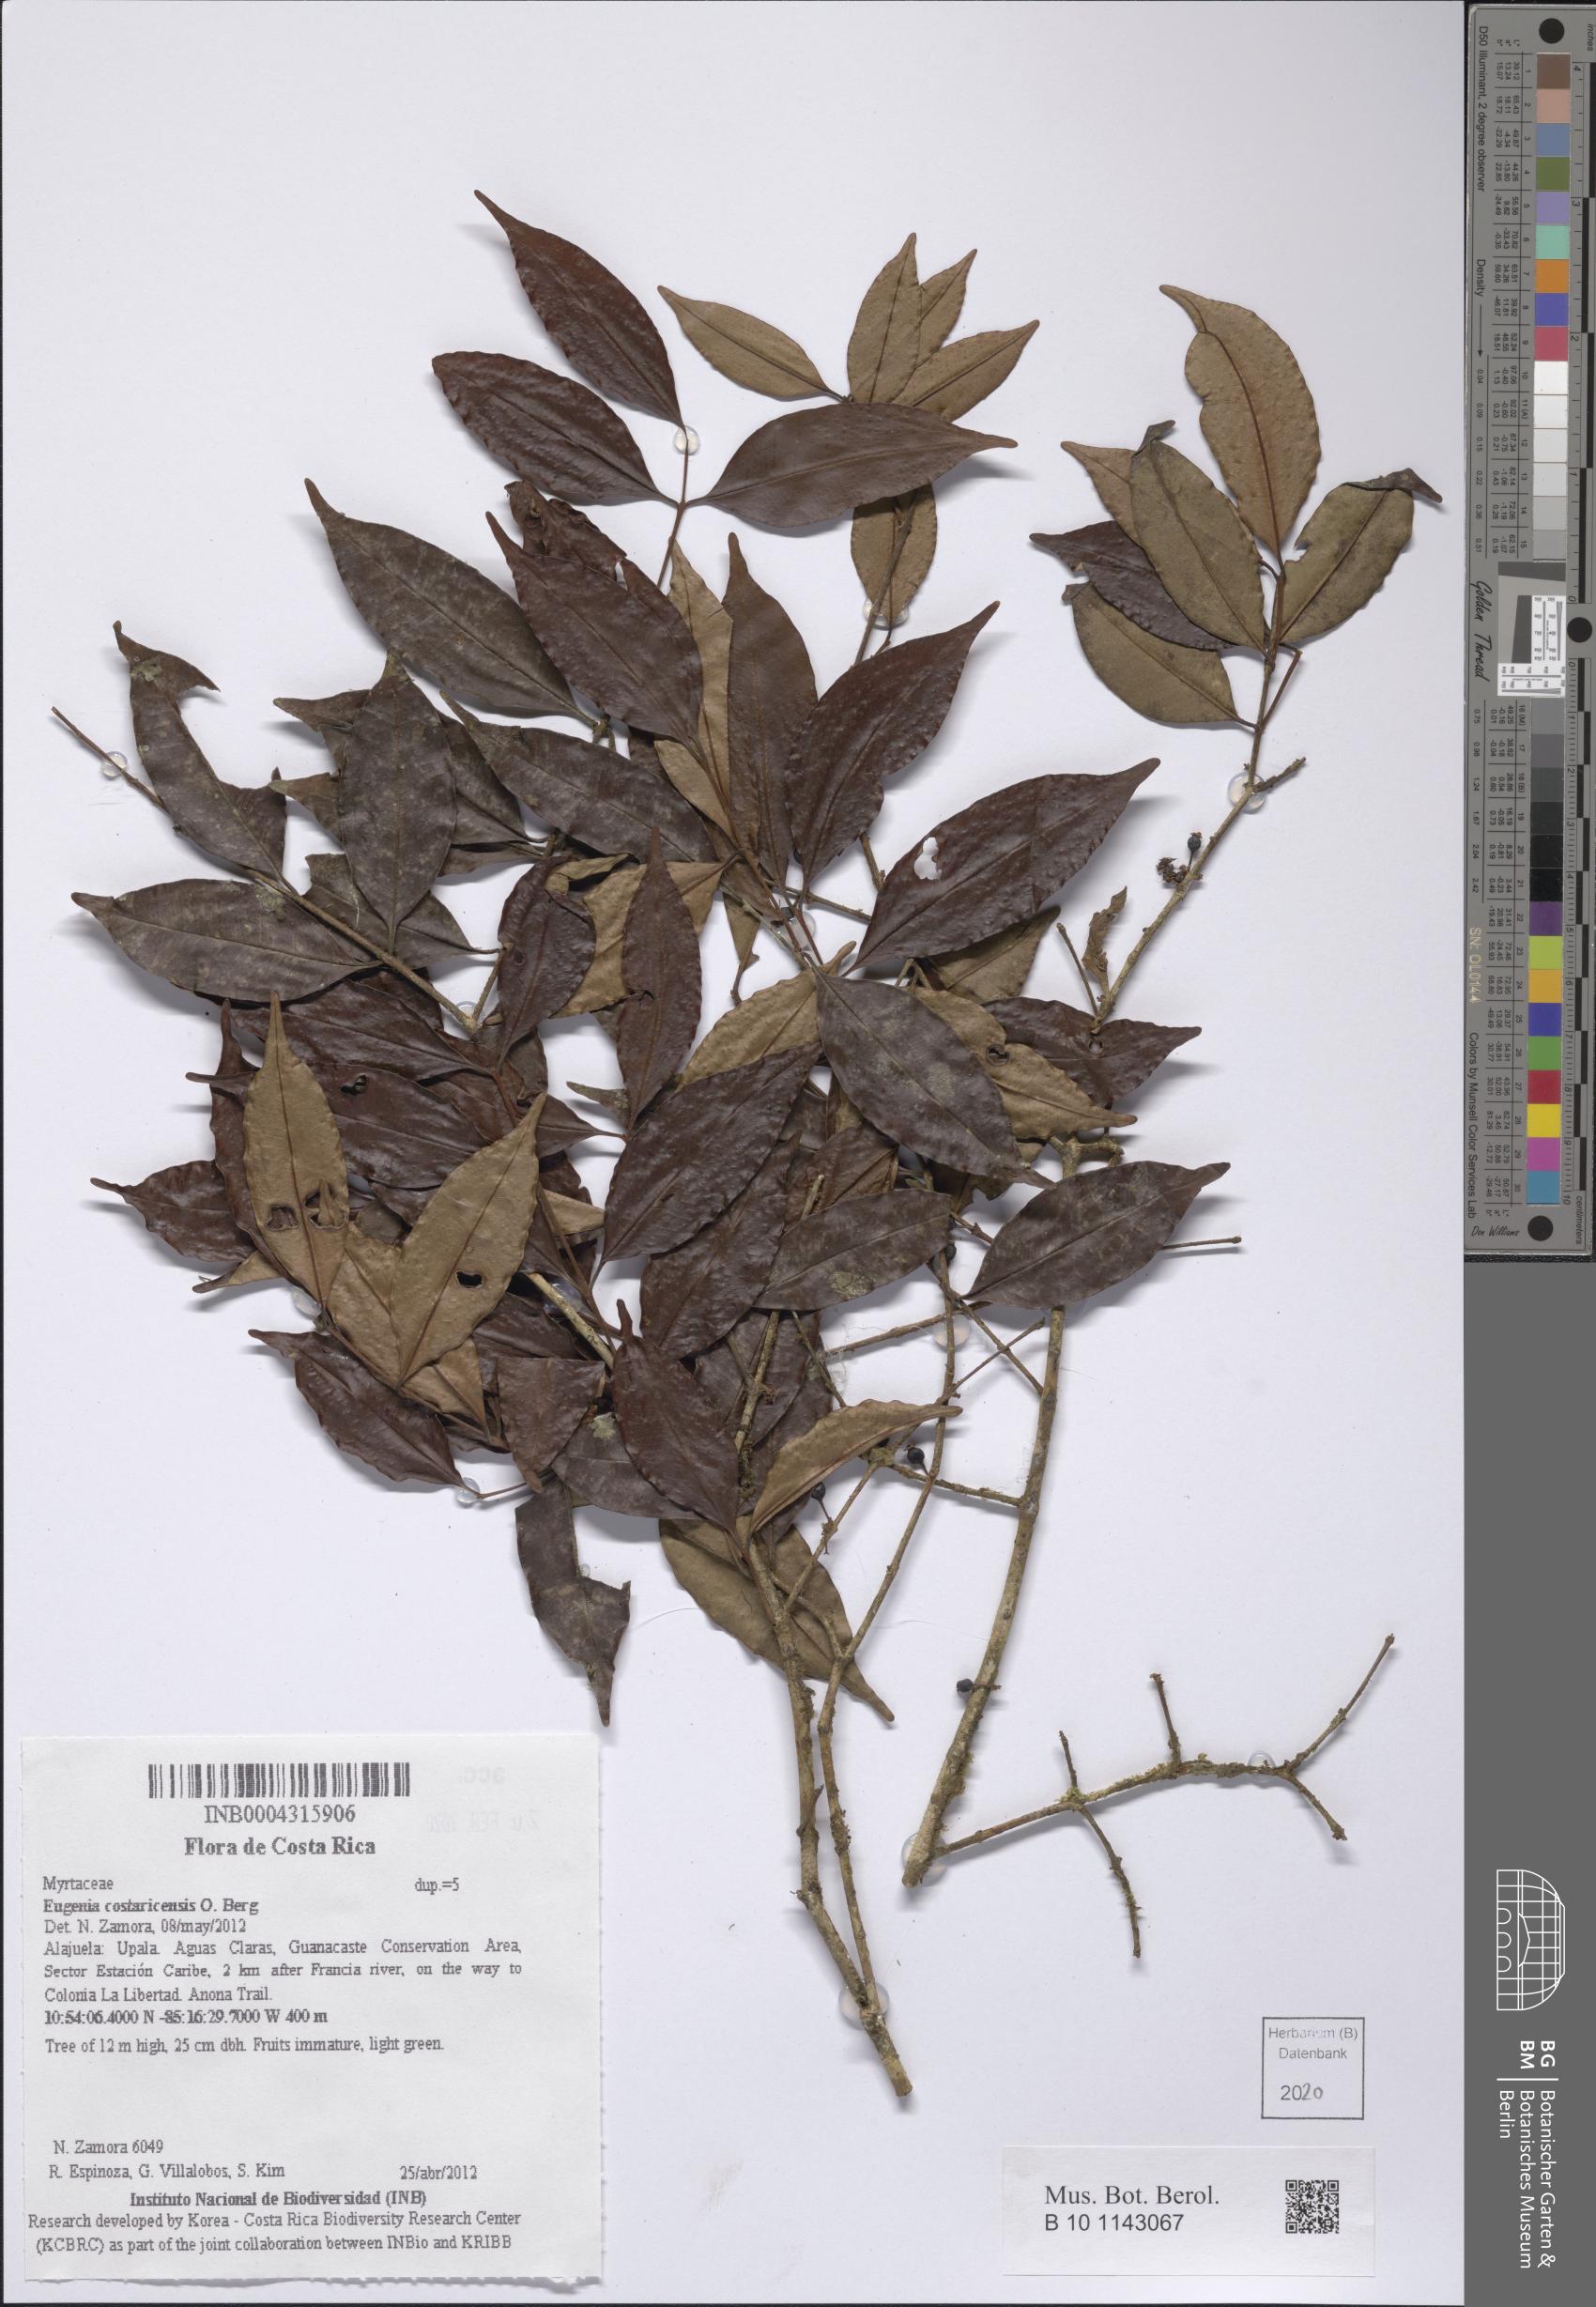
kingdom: Plantae
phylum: Tracheophyta
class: Magnoliopsida
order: Myrtales
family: Myrtaceae
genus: Eugenia
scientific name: Eugenia costaricensis
